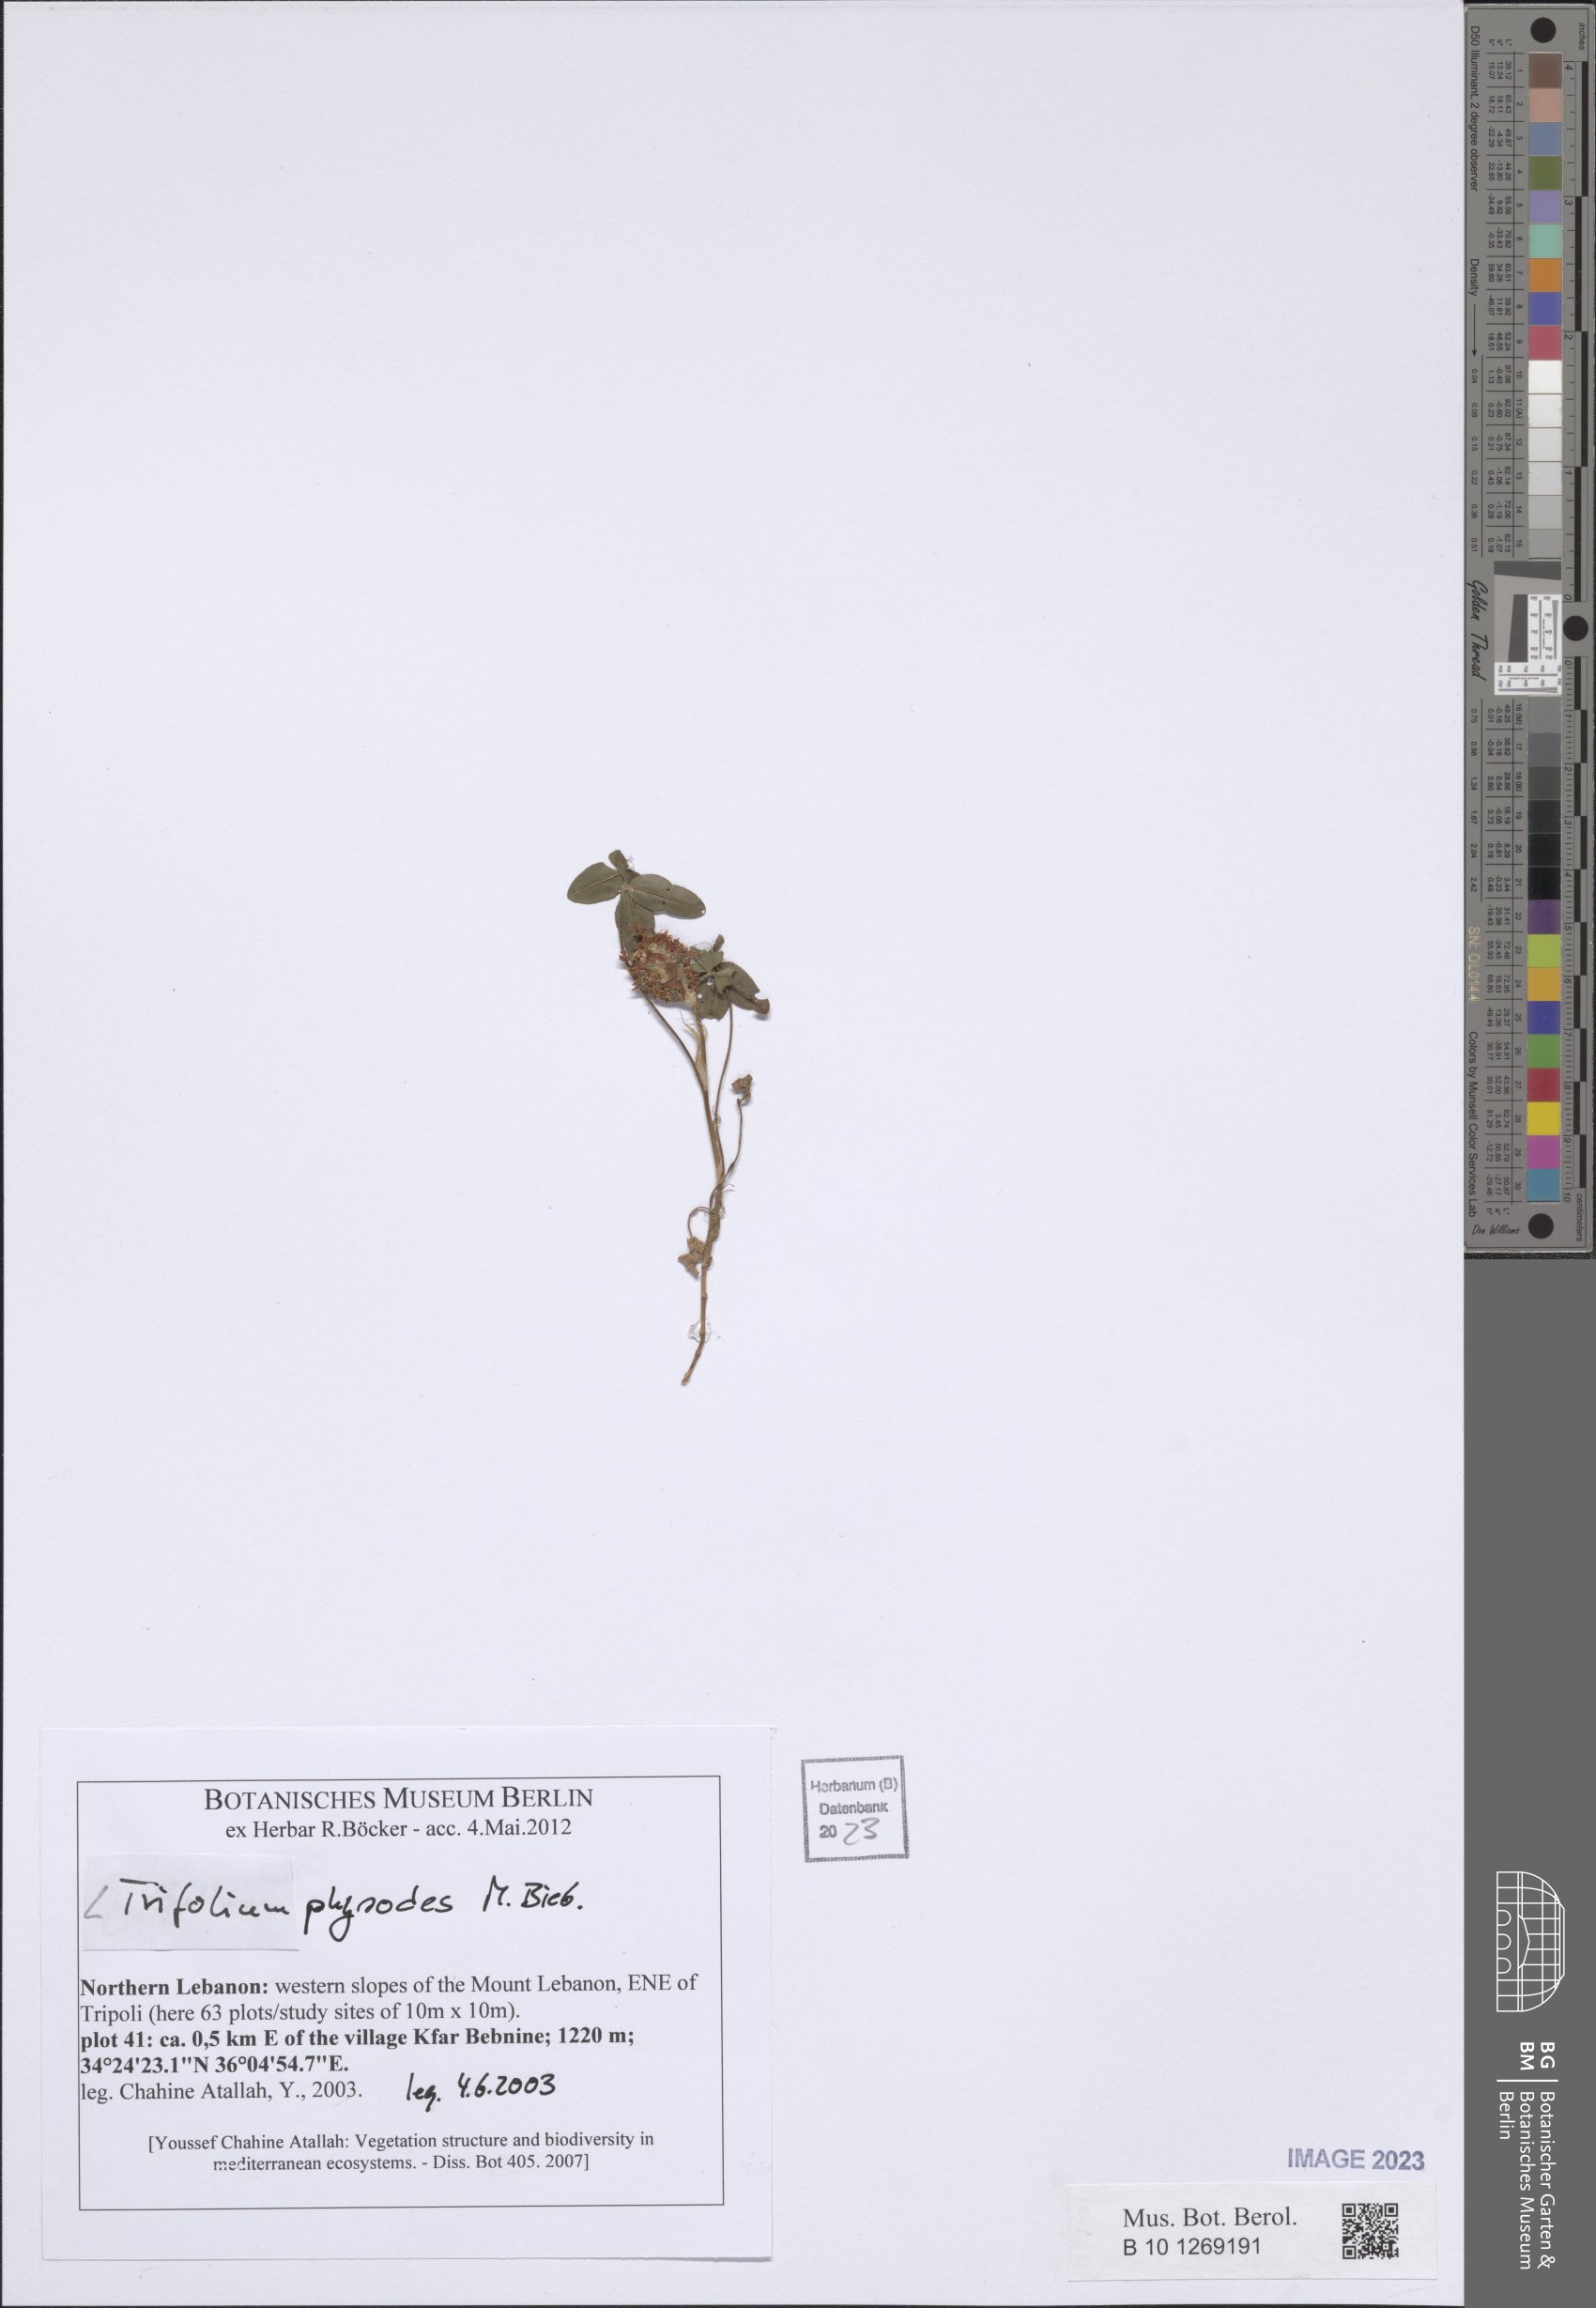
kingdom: Plantae
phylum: Tracheophyta
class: Magnoliopsida
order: Fabales
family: Fabaceae
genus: Trifolium
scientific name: Trifolium physodes
